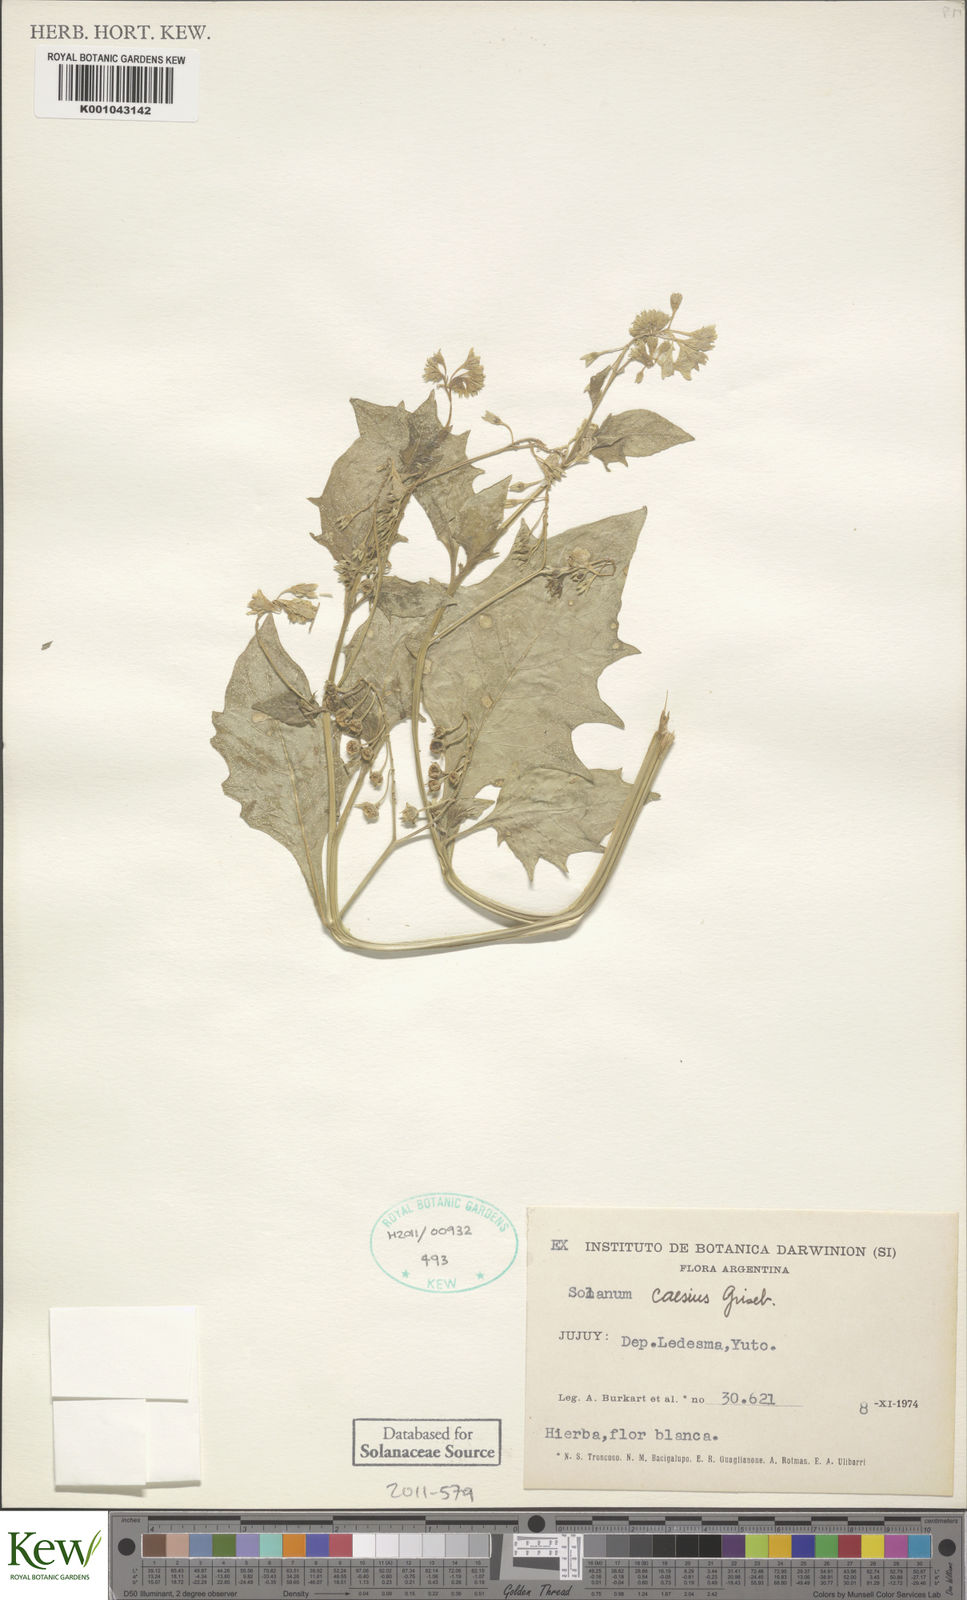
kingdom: Plantae
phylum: Tracheophyta
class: Magnoliopsida
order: Solanales
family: Solanaceae
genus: Solanum
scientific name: Solanum caesium
